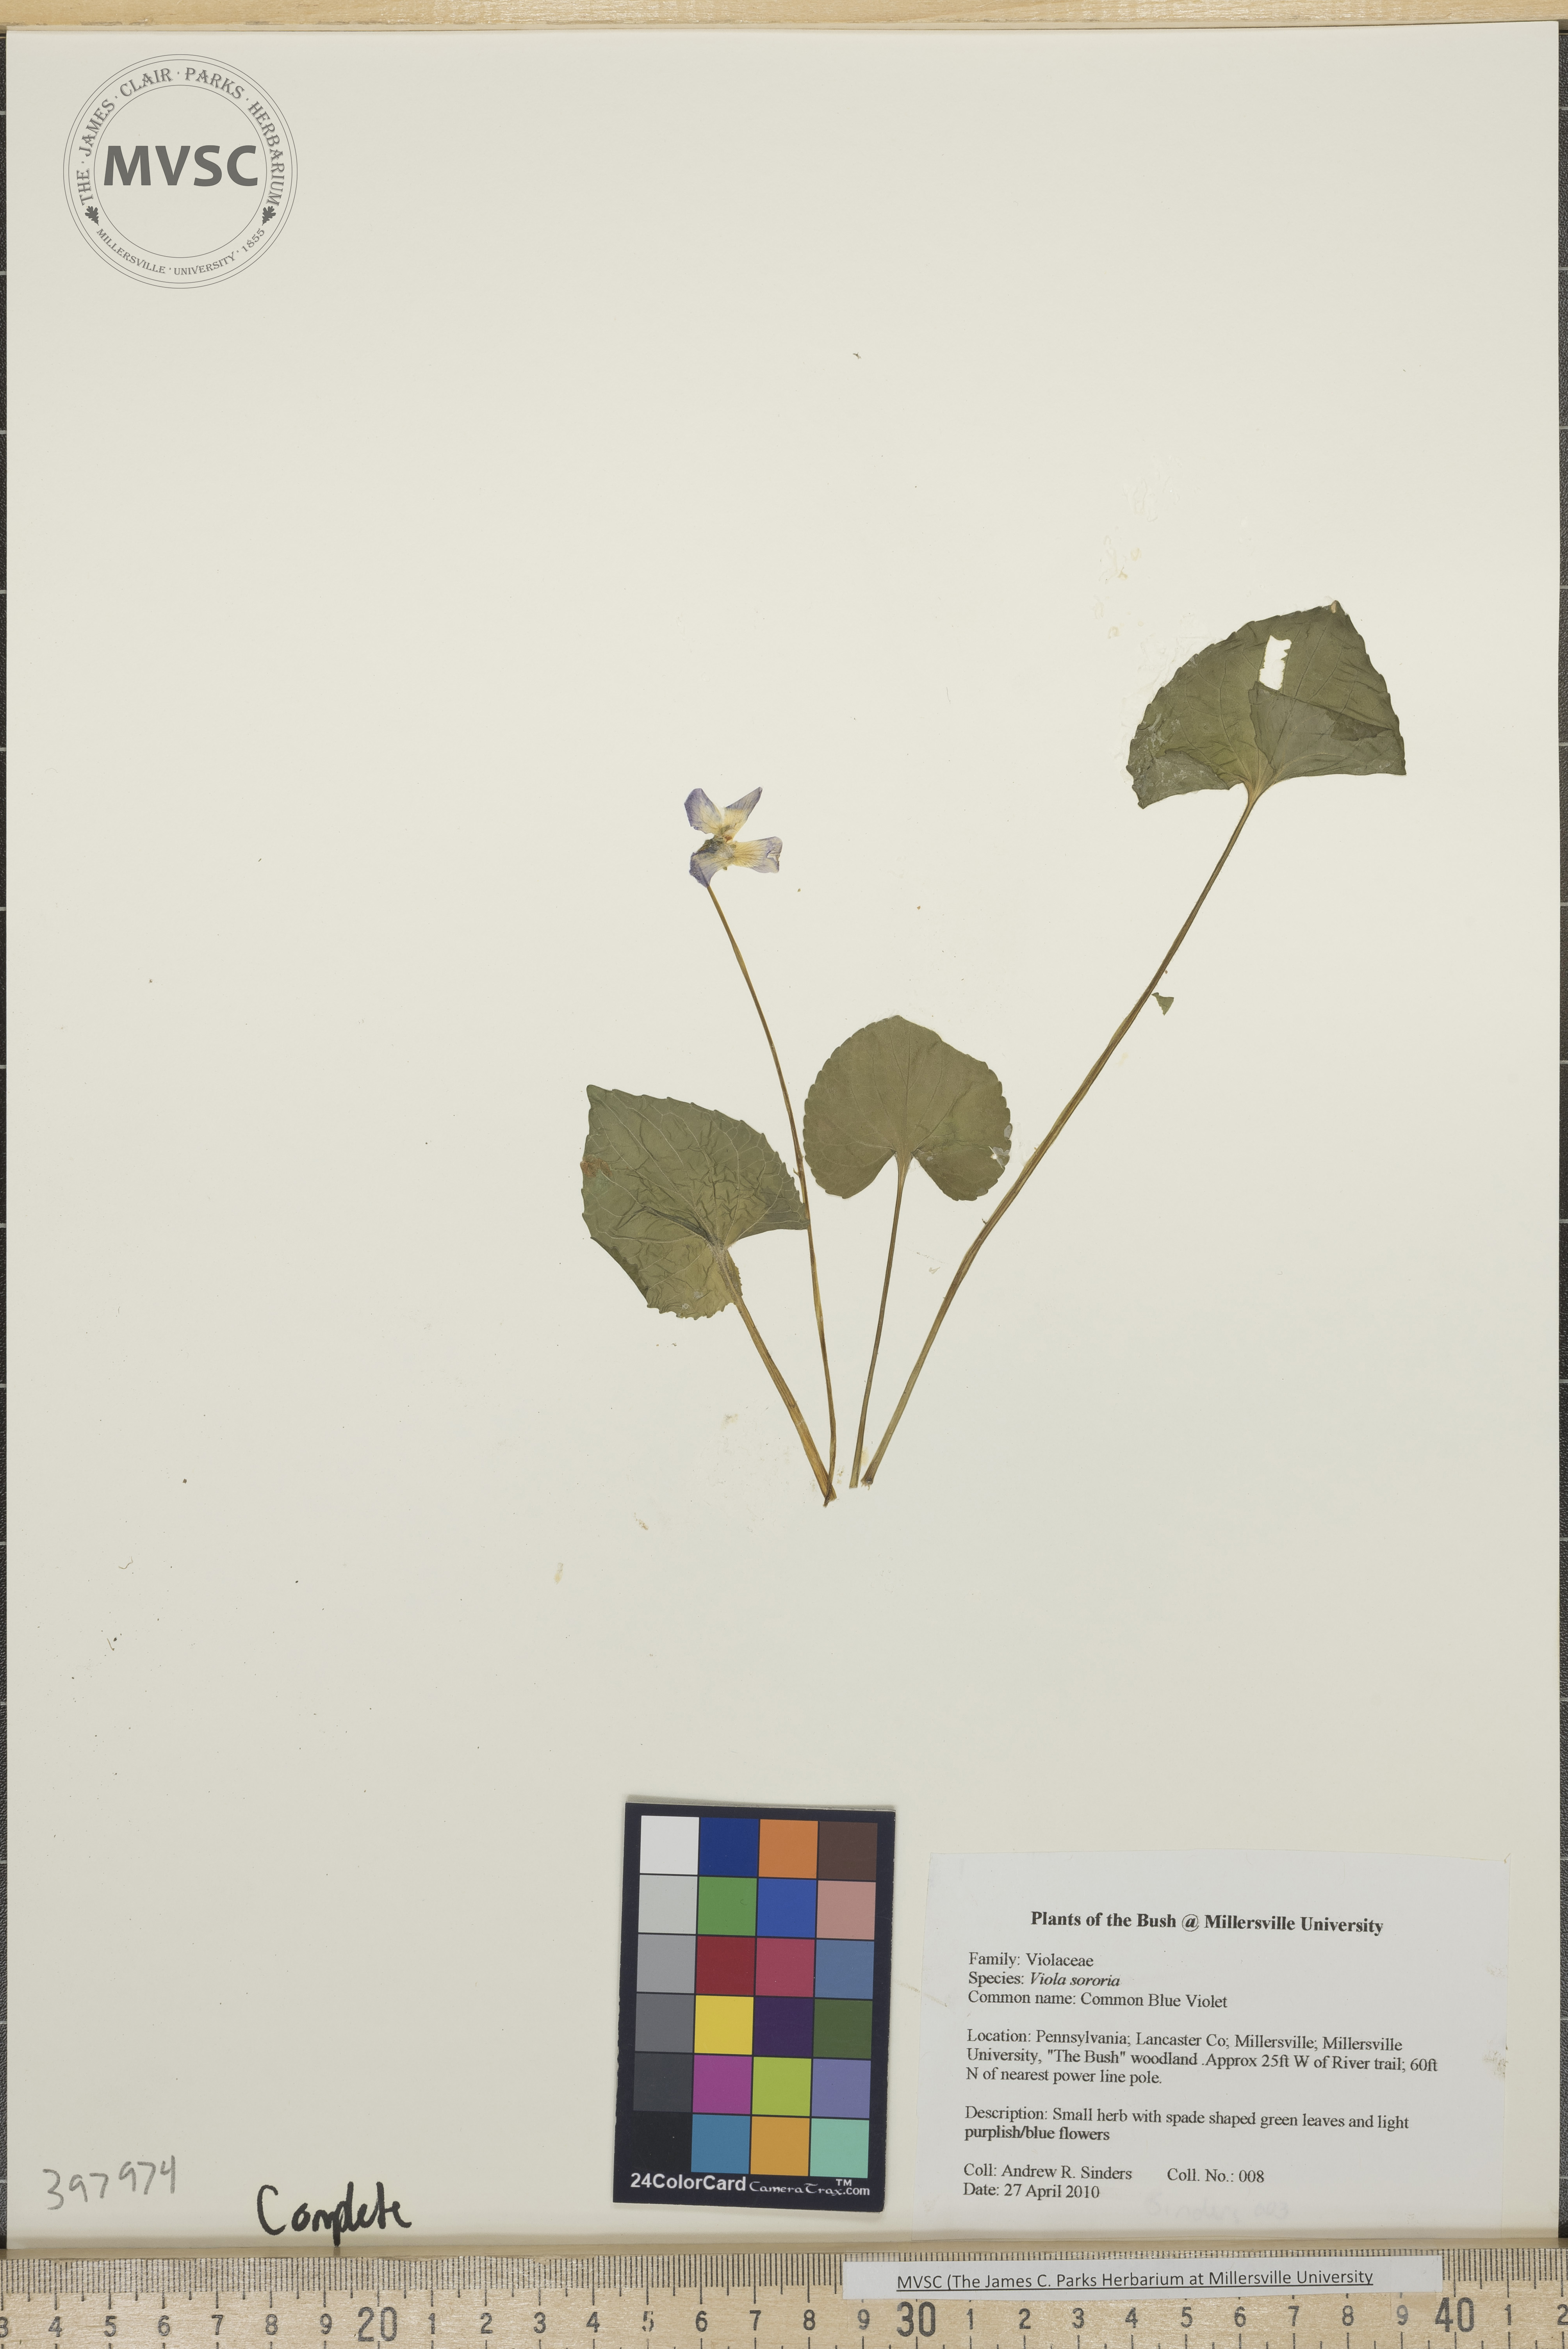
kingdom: Plantae
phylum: Tracheophyta
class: Magnoliopsida
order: Malpighiales
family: Violaceae
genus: Viola
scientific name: Viola sororia
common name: Common blue violet
